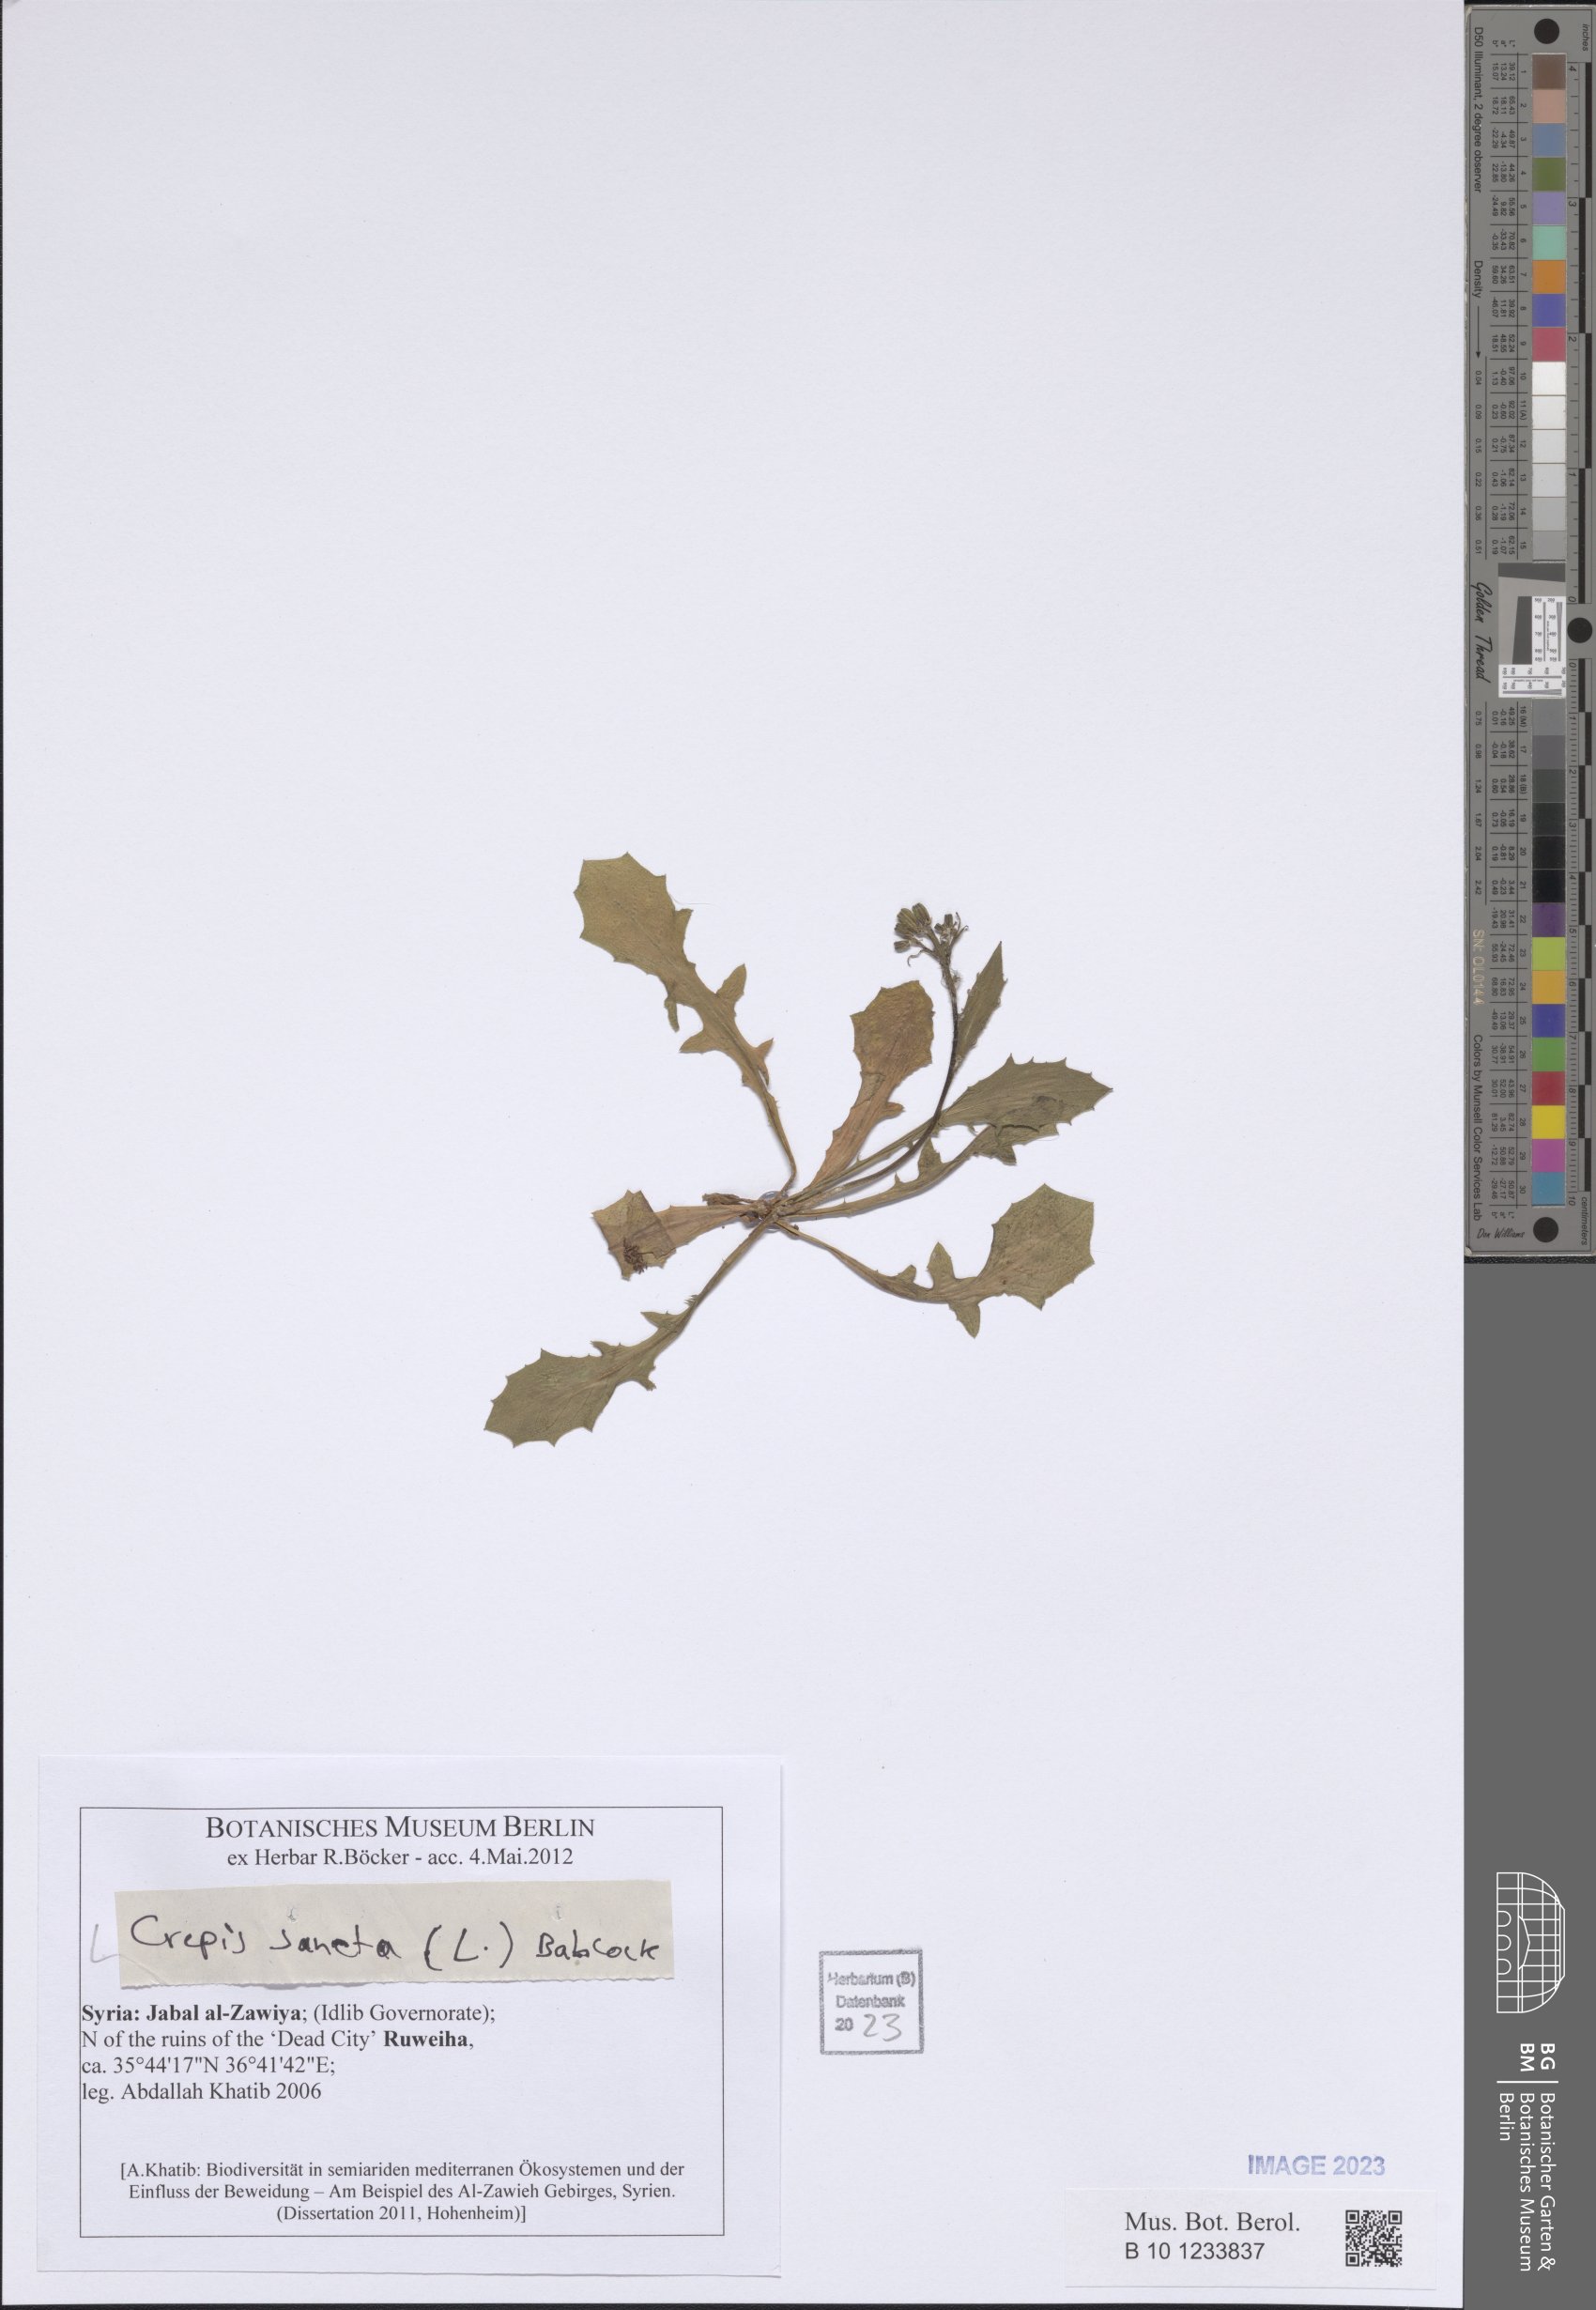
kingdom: Plantae
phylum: Tracheophyta
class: Magnoliopsida
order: Asterales
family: Asteraceae
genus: Crepis
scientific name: Crepis sancta
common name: Hawk's-beard
